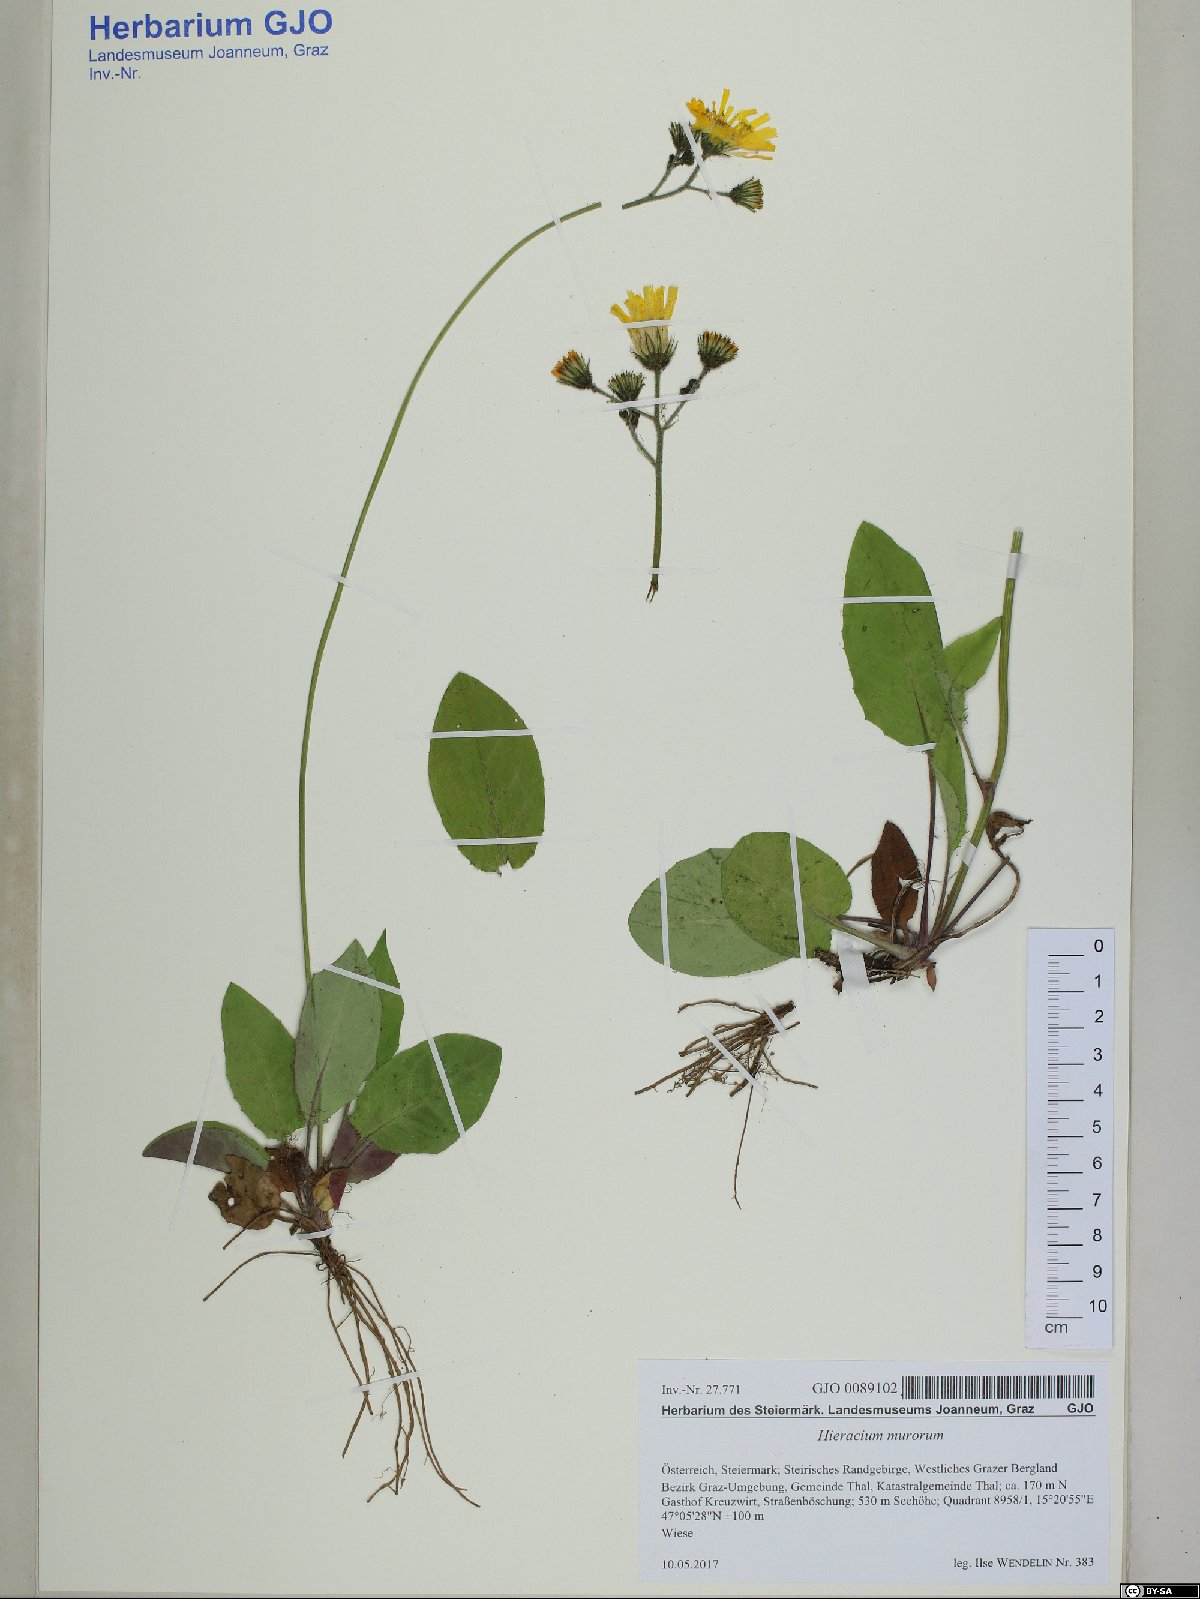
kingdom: Plantae
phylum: Tracheophyta
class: Magnoliopsida
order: Asterales
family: Asteraceae
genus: Hieracium
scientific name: Hieracium murorum
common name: Wall hawkweed
